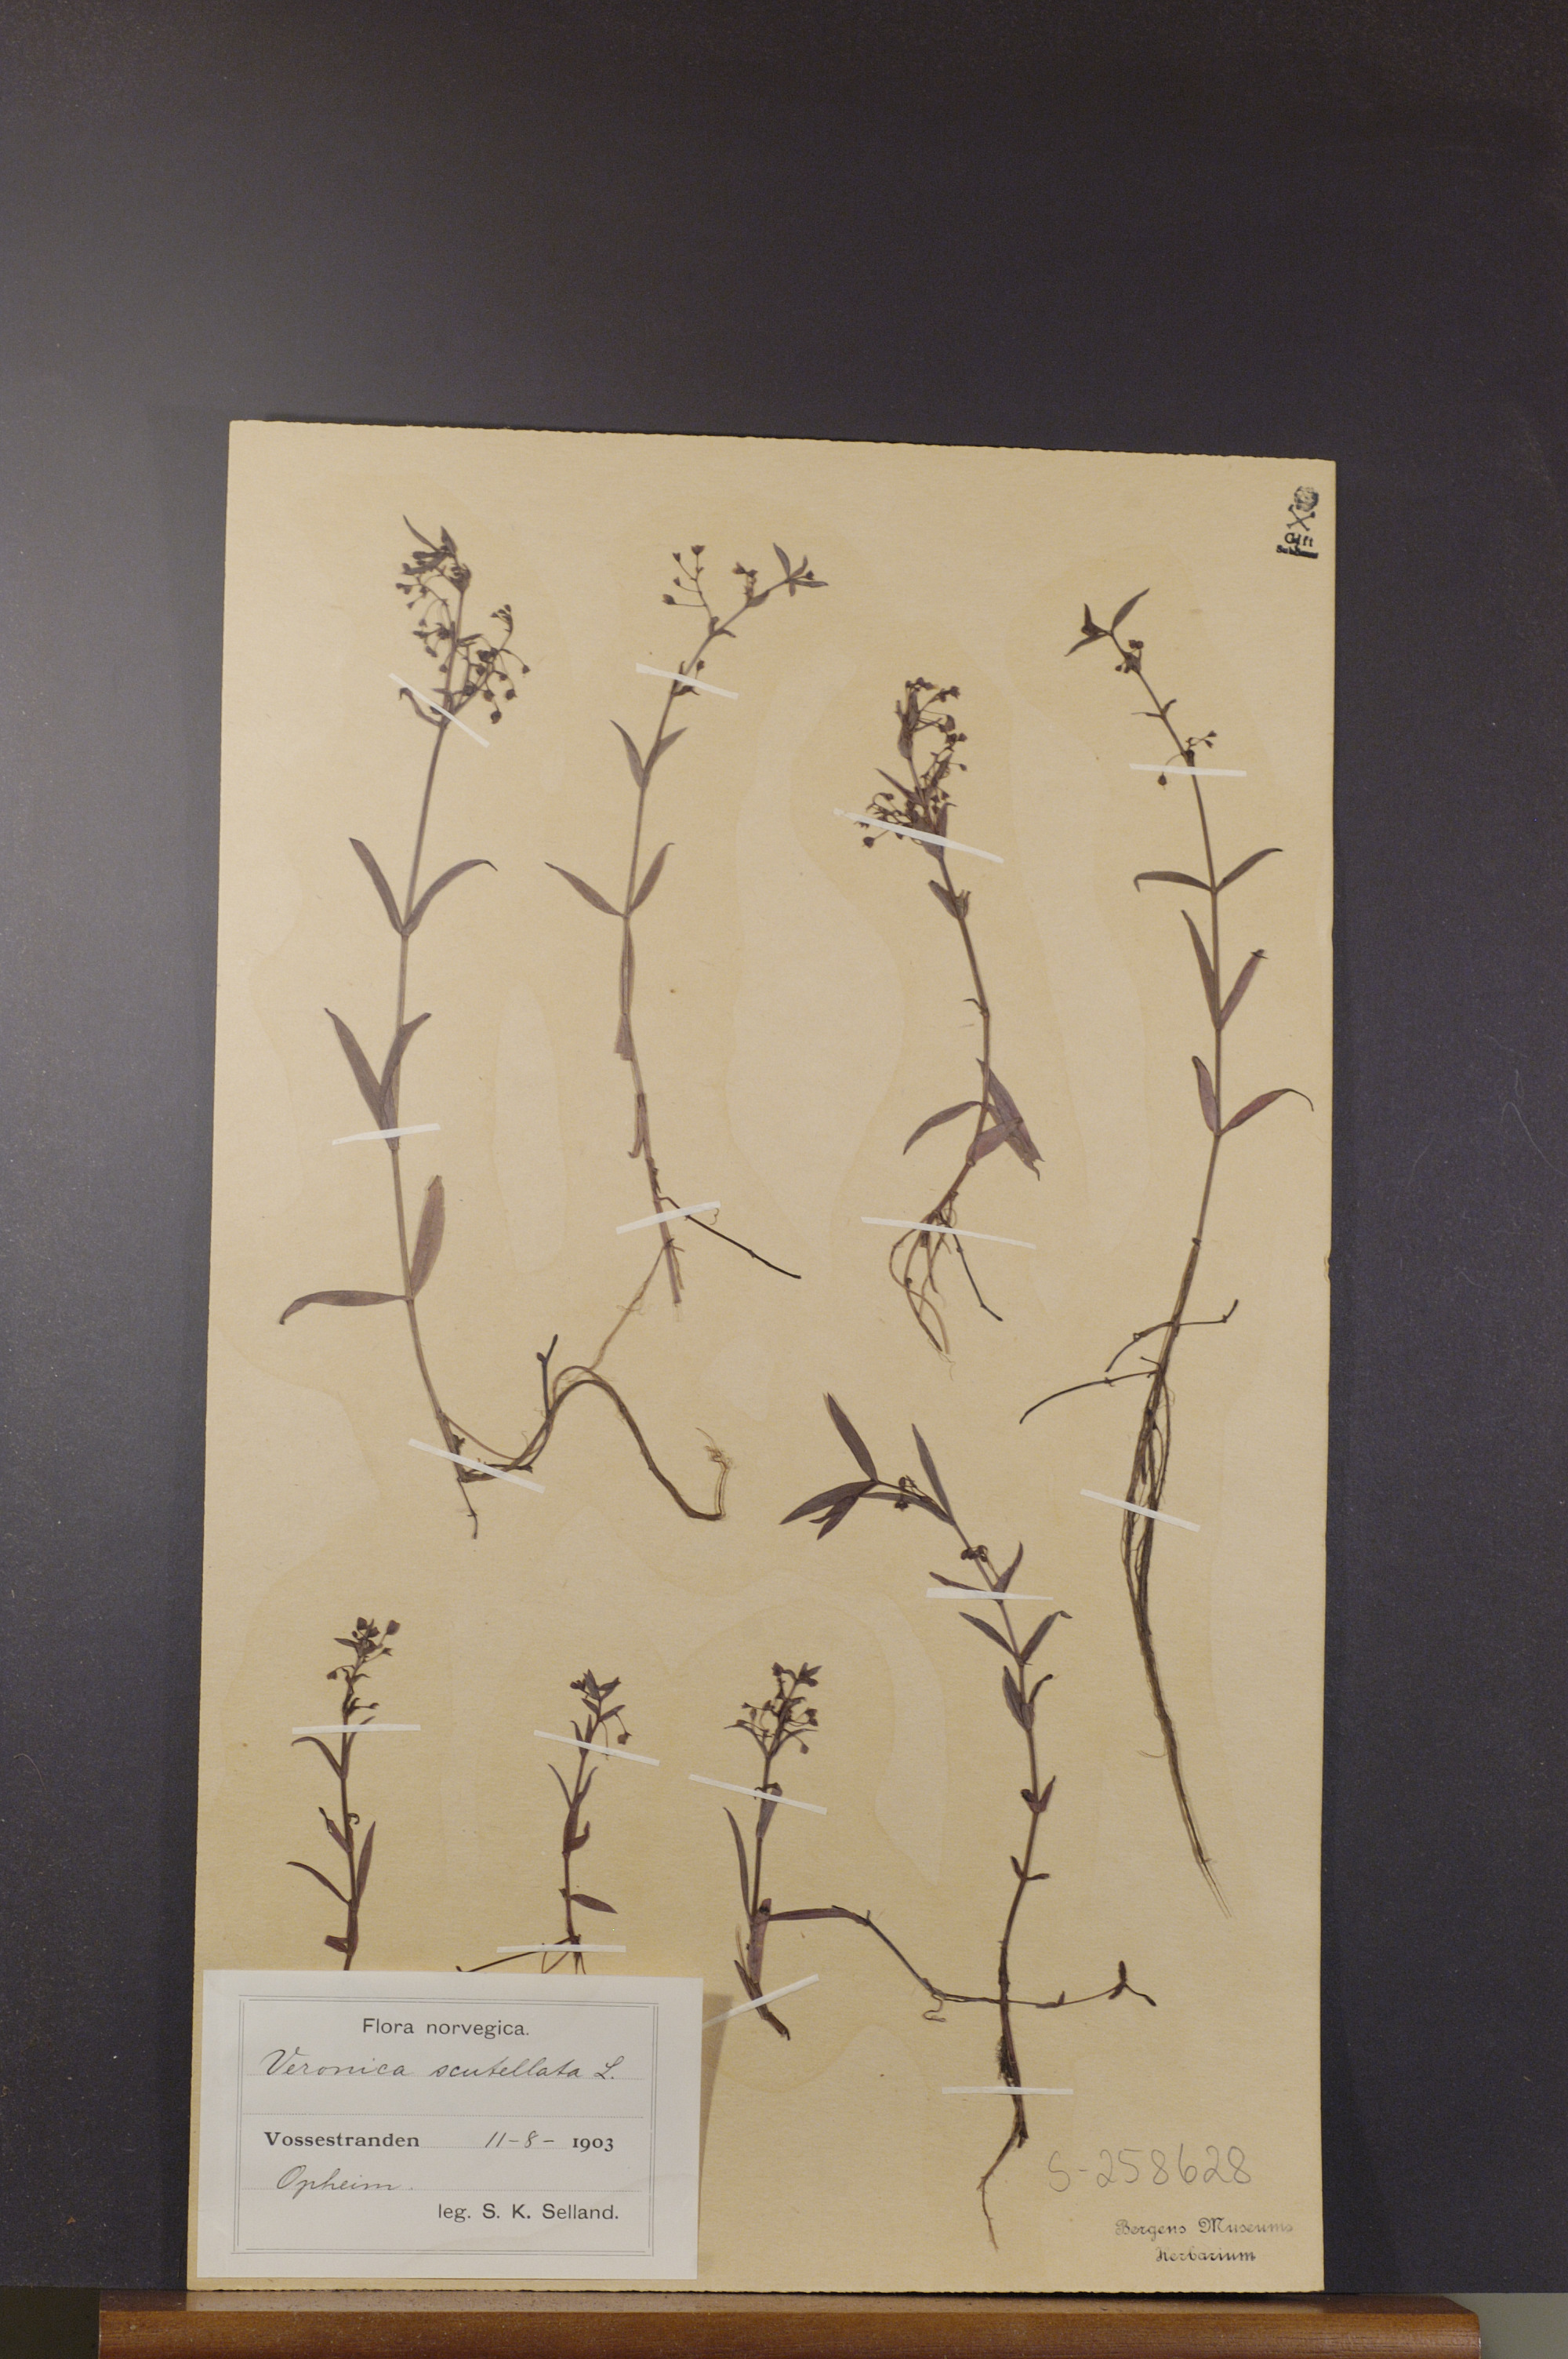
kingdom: Plantae
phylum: Tracheophyta
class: Magnoliopsida
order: Lamiales
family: Plantaginaceae
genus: Veronica
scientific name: Veronica scutellata
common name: Marsh speedwell
